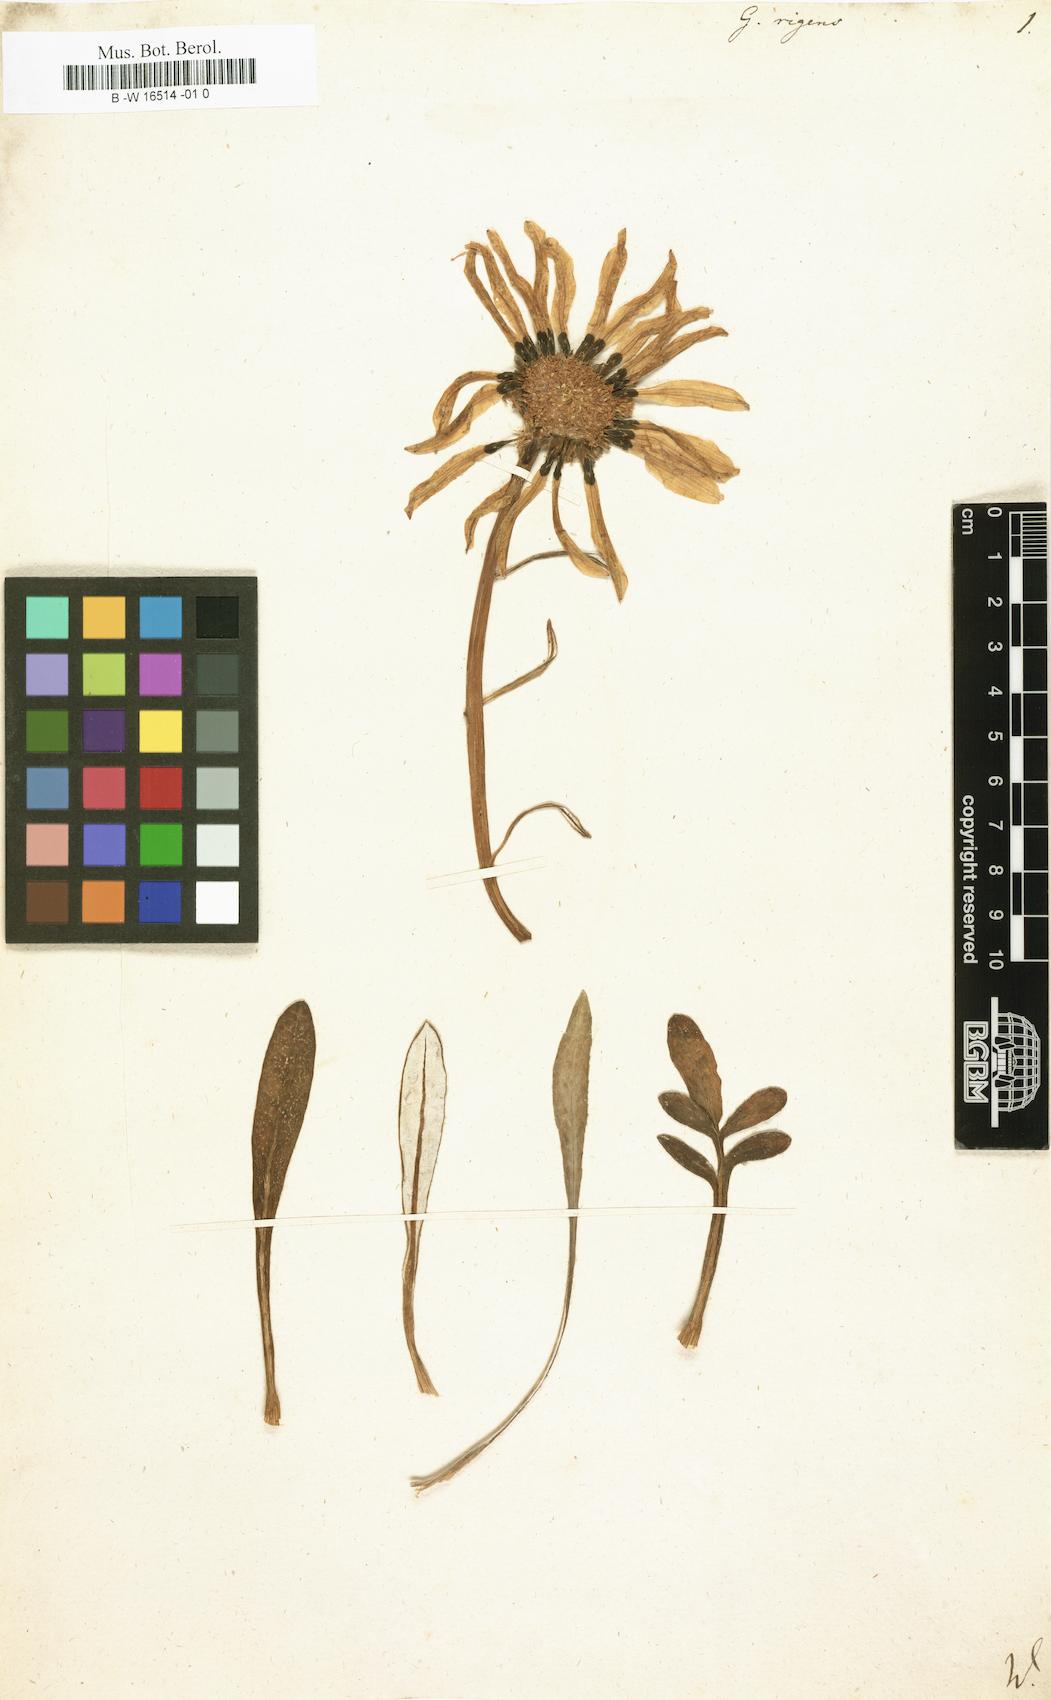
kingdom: Plantae
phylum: Tracheophyta
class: Magnoliopsida
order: Asterales
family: Asteraceae
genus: Gazania
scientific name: Gazania
